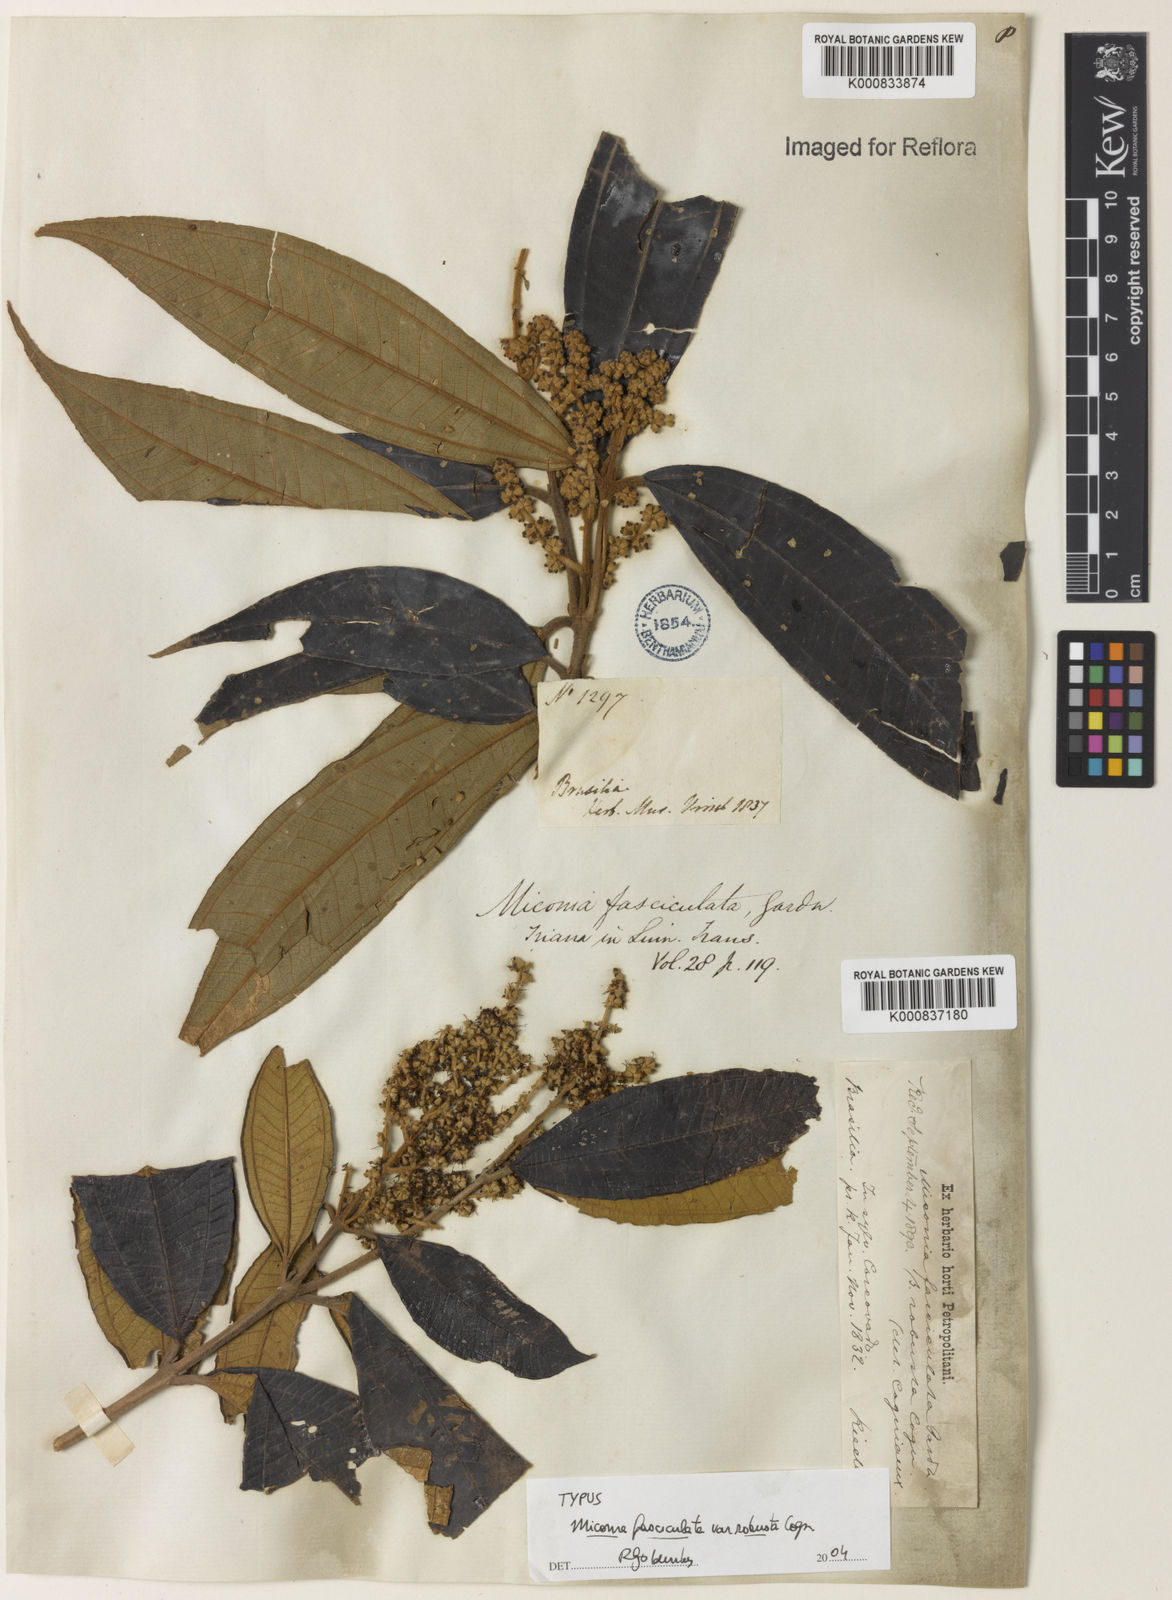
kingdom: Plantae
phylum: Tracheophyta
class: Magnoliopsida
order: Myrtales
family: Melastomataceae
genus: Miconia
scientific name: Miconia fasciculata
